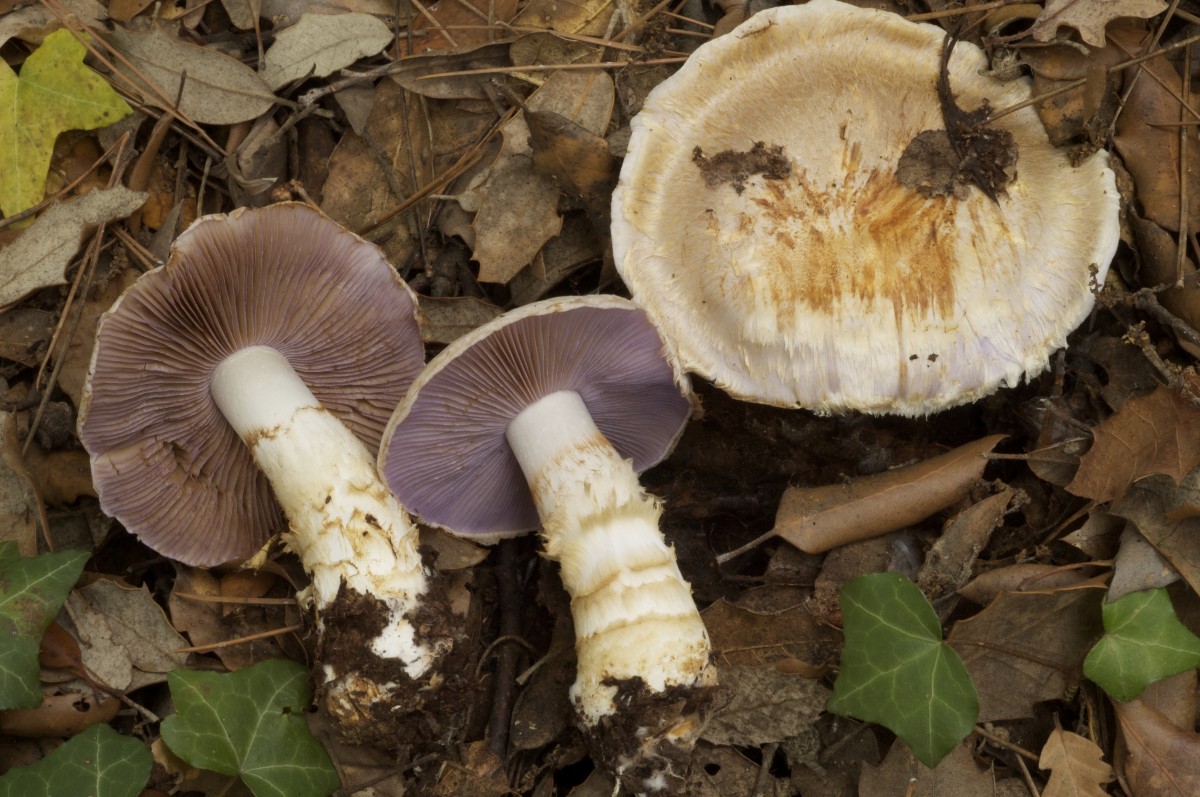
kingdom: Fungi
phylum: Basidiomycota
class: Agaricomycetes
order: Agaricales
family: Cortinariaceae
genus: Phlegmacium
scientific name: Phlegmacium caligatum
